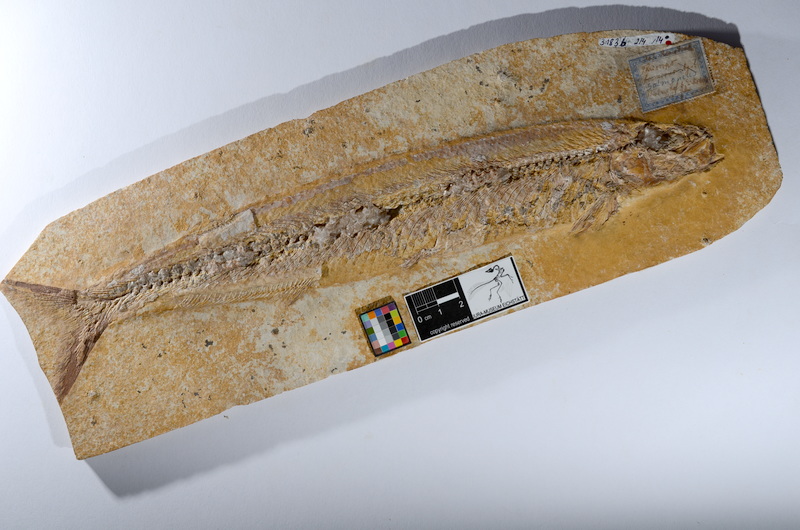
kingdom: Animalia
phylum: Chordata
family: Allothrissopidae
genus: Allothrissops
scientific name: Allothrissops salmoneus
